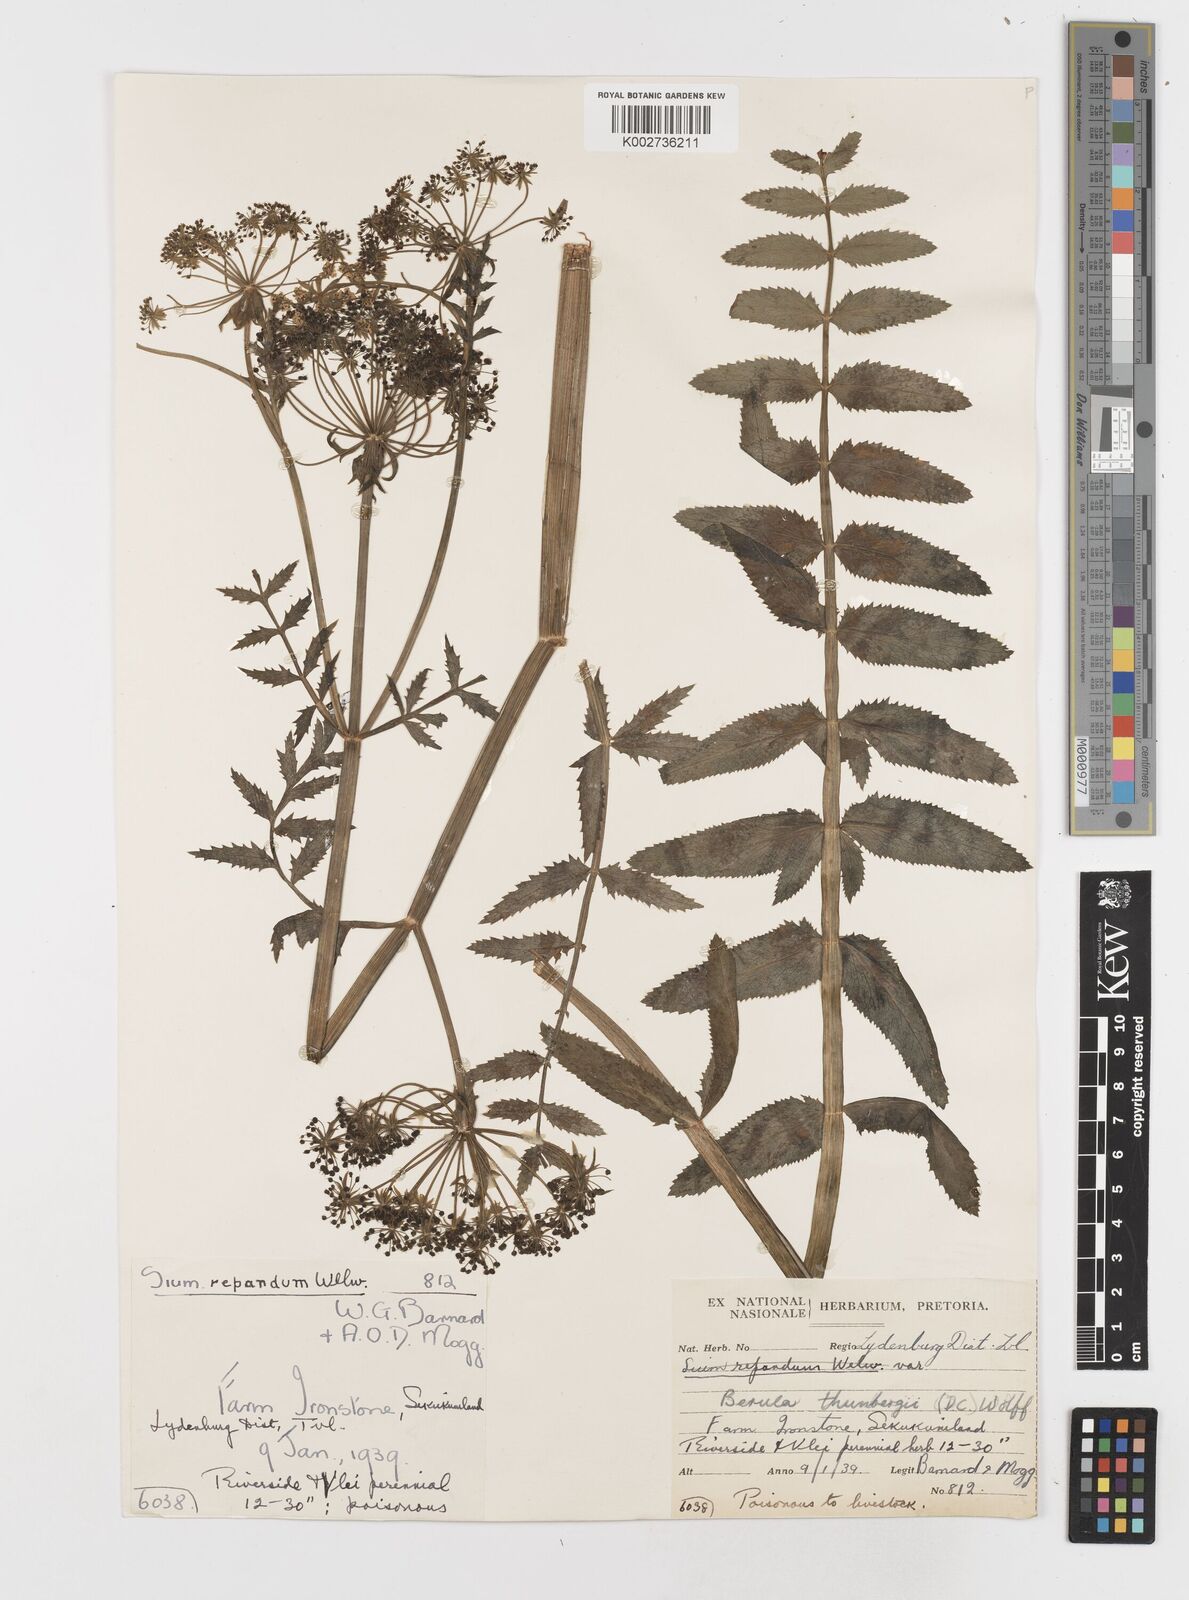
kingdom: Plantae
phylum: Tracheophyta
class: Magnoliopsida
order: Apiales
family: Apiaceae
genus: Berula
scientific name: Berula erecta
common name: Lesser water-parsnip
